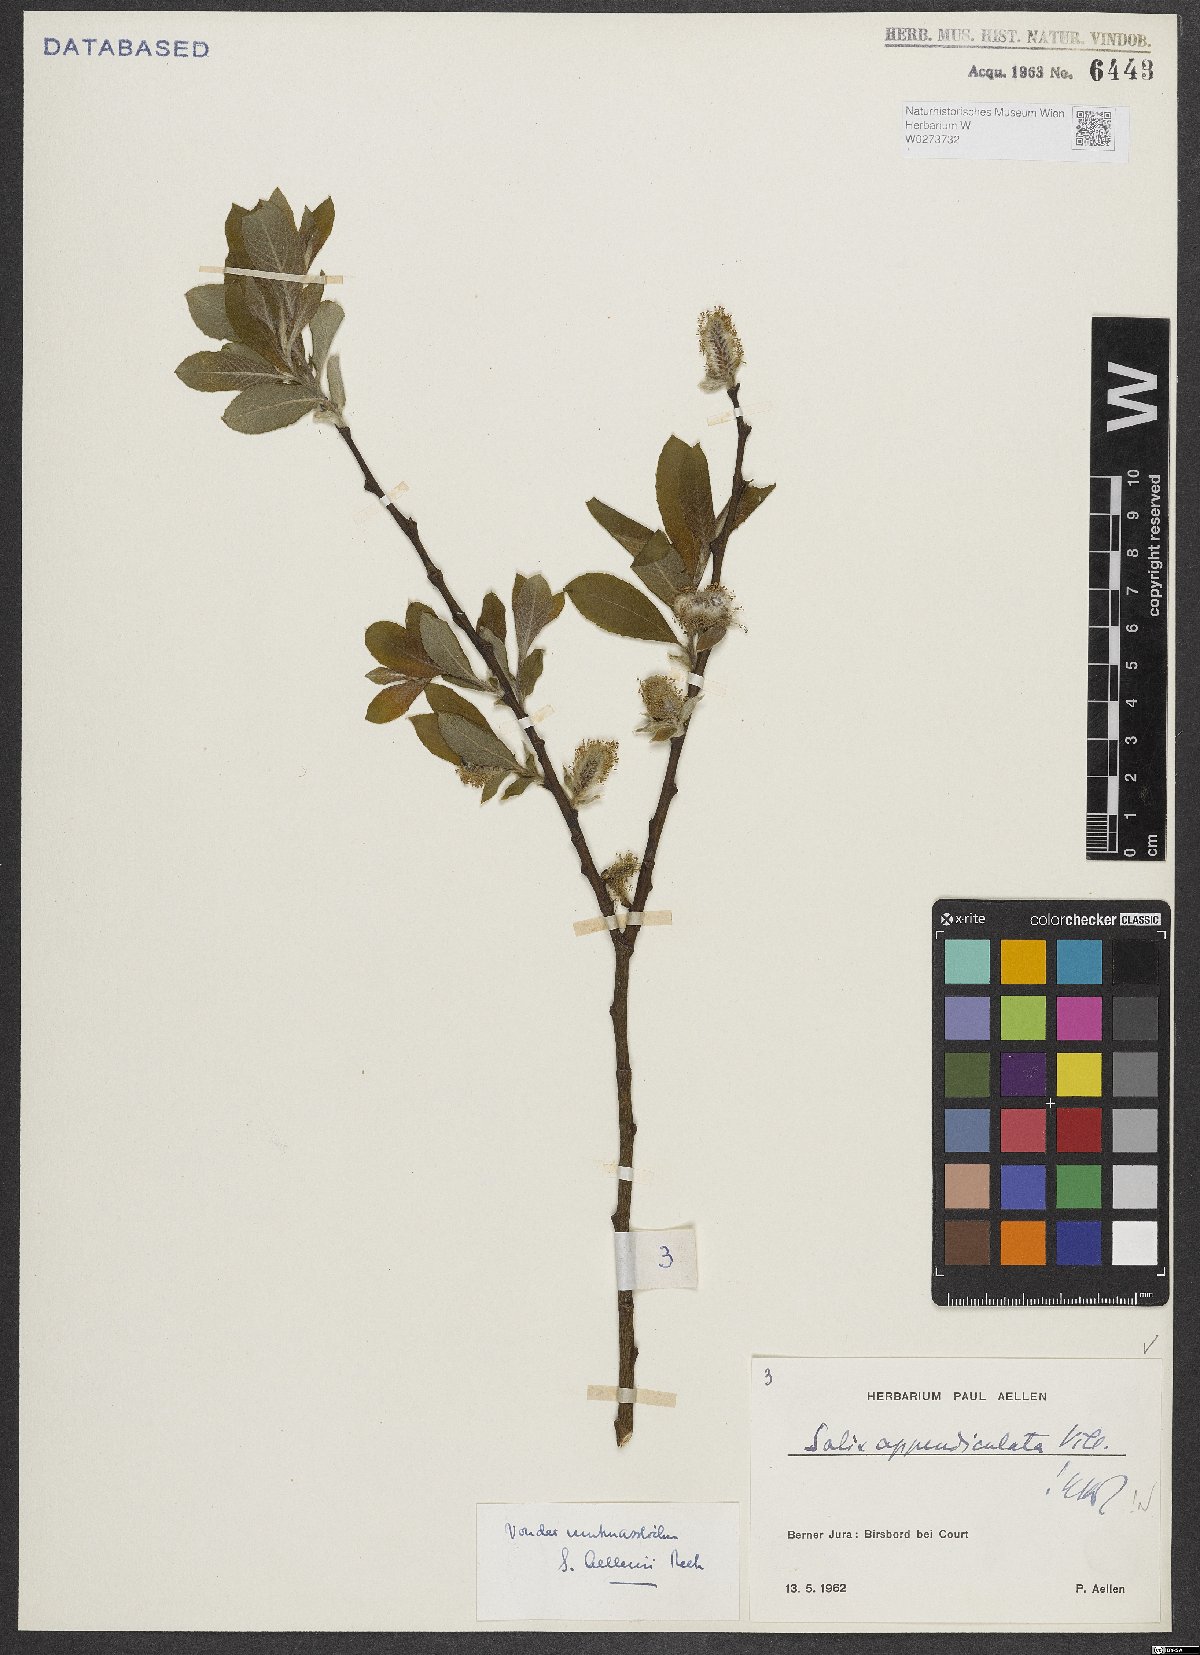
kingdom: Plantae
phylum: Tracheophyta
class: Magnoliopsida
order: Malpighiales
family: Salicaceae
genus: Salix
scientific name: Salix appendiculata
